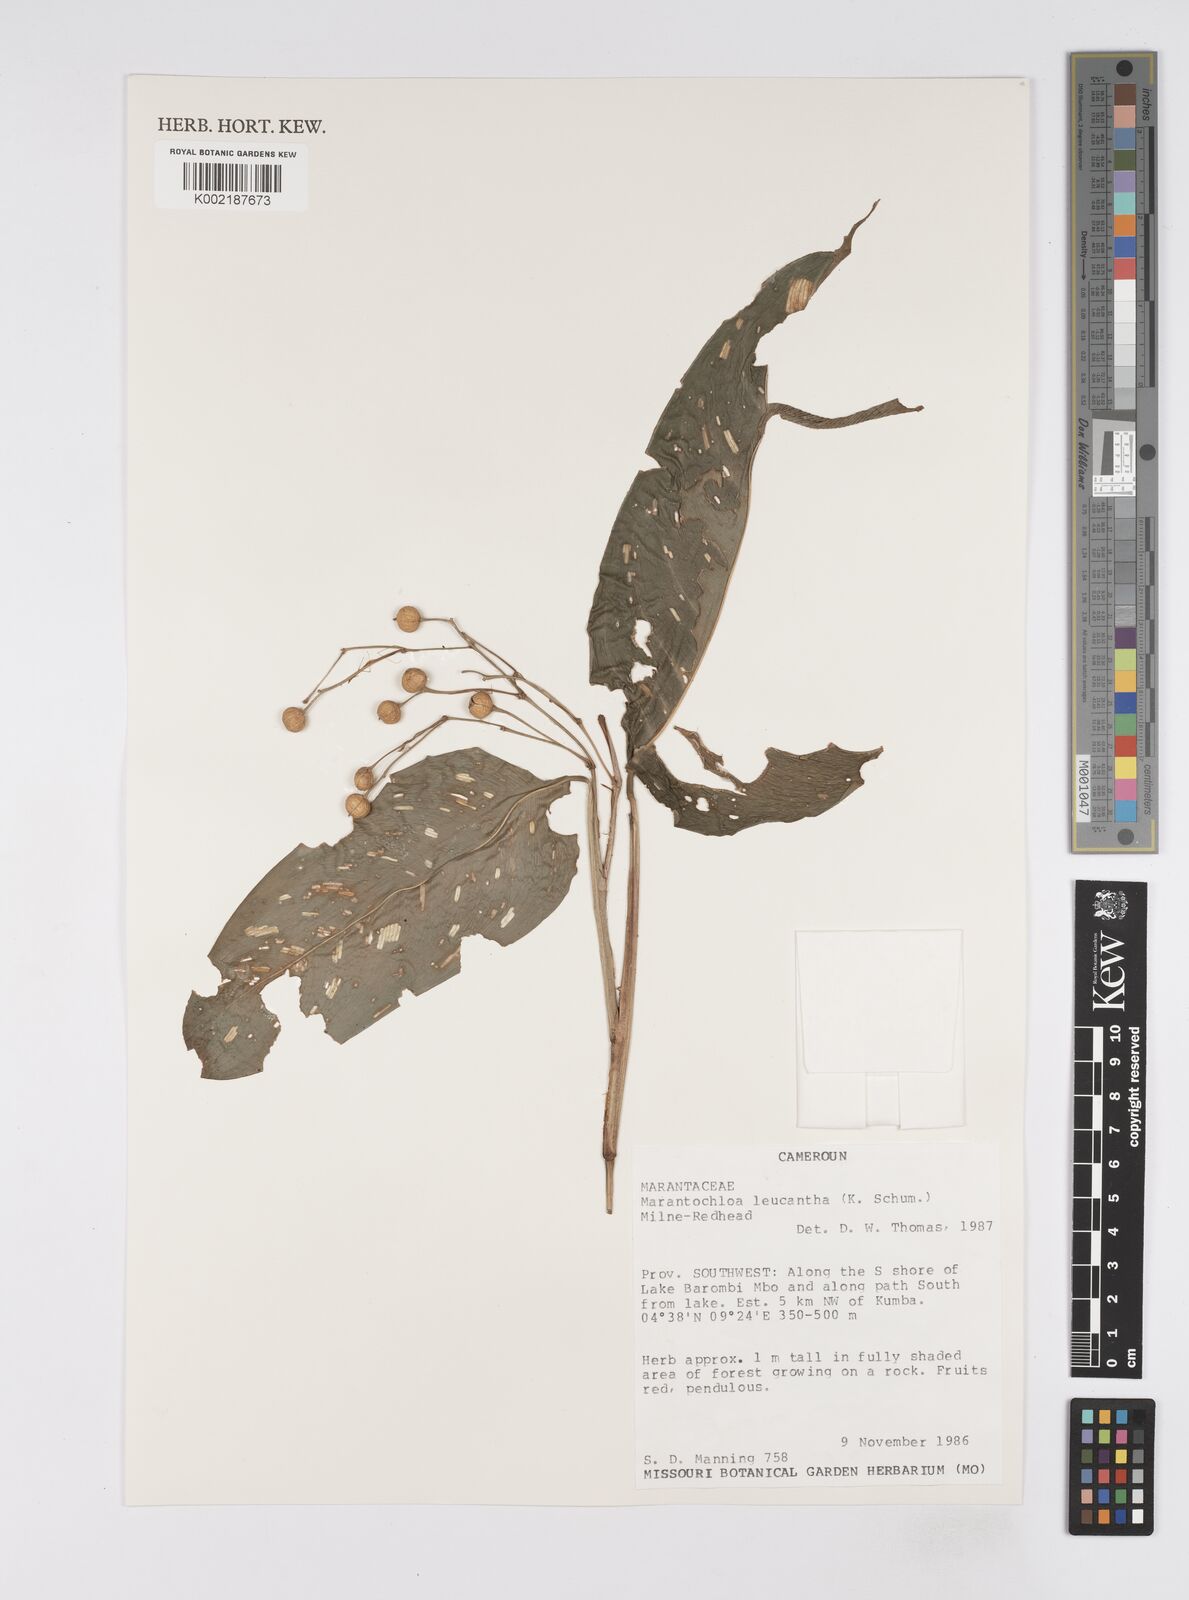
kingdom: Plantae
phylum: Tracheophyta
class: Liliopsida
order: Zingiberales
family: Marantaceae
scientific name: Marantaceae
